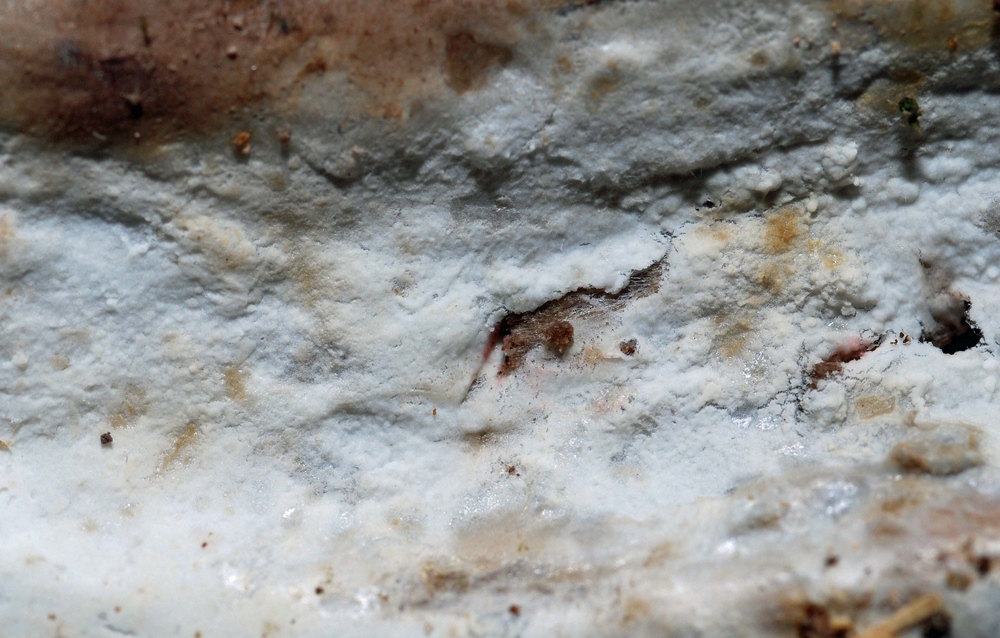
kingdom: Fungi
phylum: Basidiomycota
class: Agaricomycetes
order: Hymenochaetales
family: Rickenellaceae
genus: Peniophorella
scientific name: Peniophorella pubera
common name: dunet kalkskind
